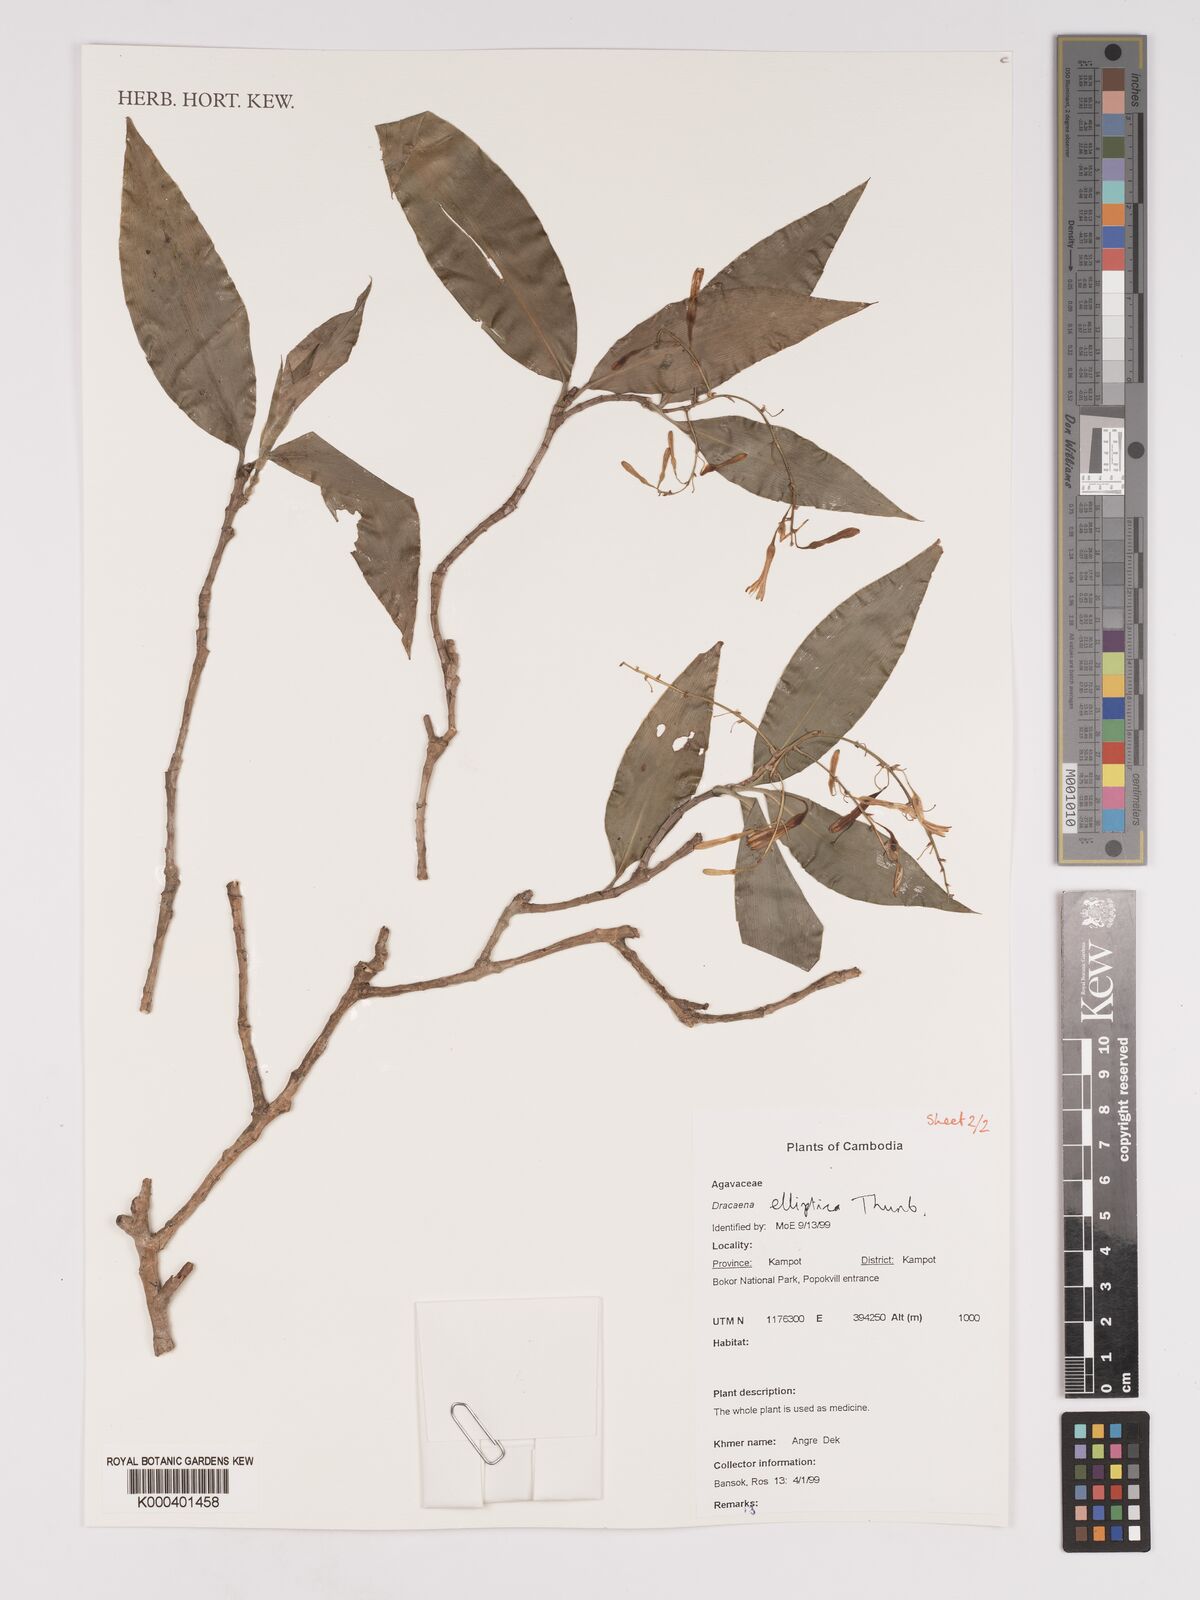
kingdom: Plantae
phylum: Tracheophyta
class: Liliopsida
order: Asparagales
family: Asparagaceae
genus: Dracaena
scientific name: Dracaena elliptica
